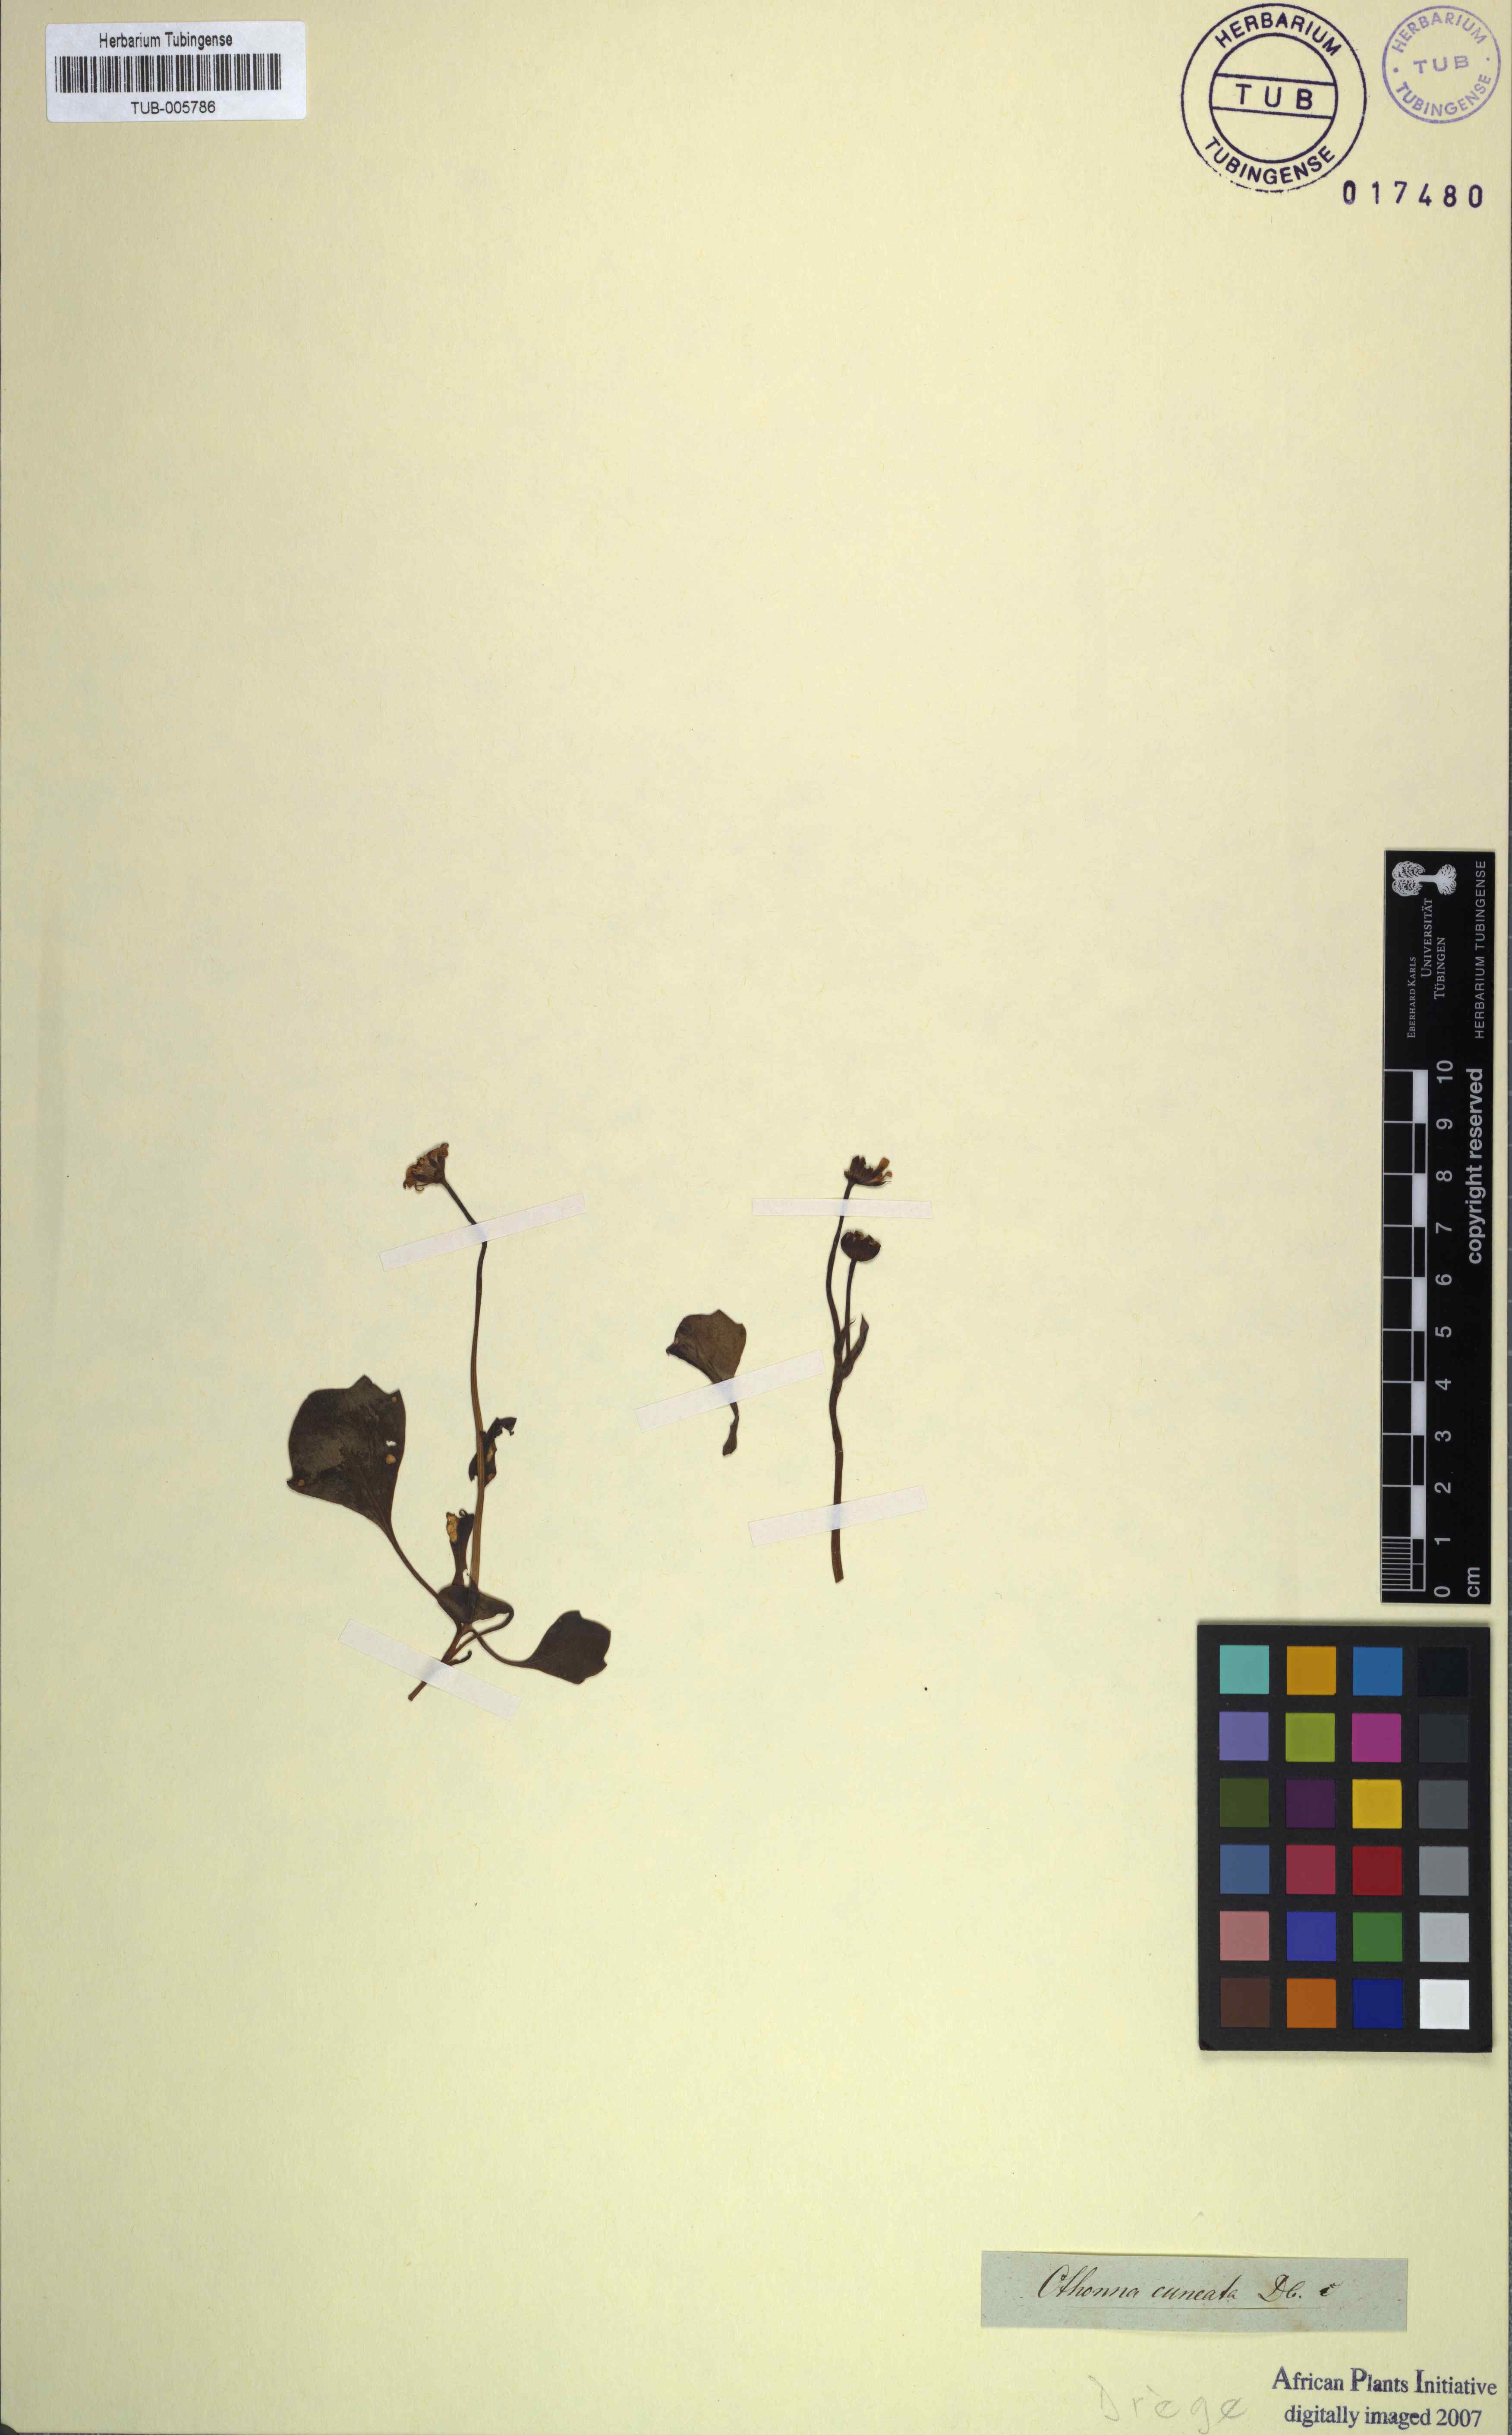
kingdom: Plantae
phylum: Tracheophyta
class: Magnoliopsida
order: Asterales
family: Asteraceae
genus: Othonna
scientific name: Othonna cuneata
